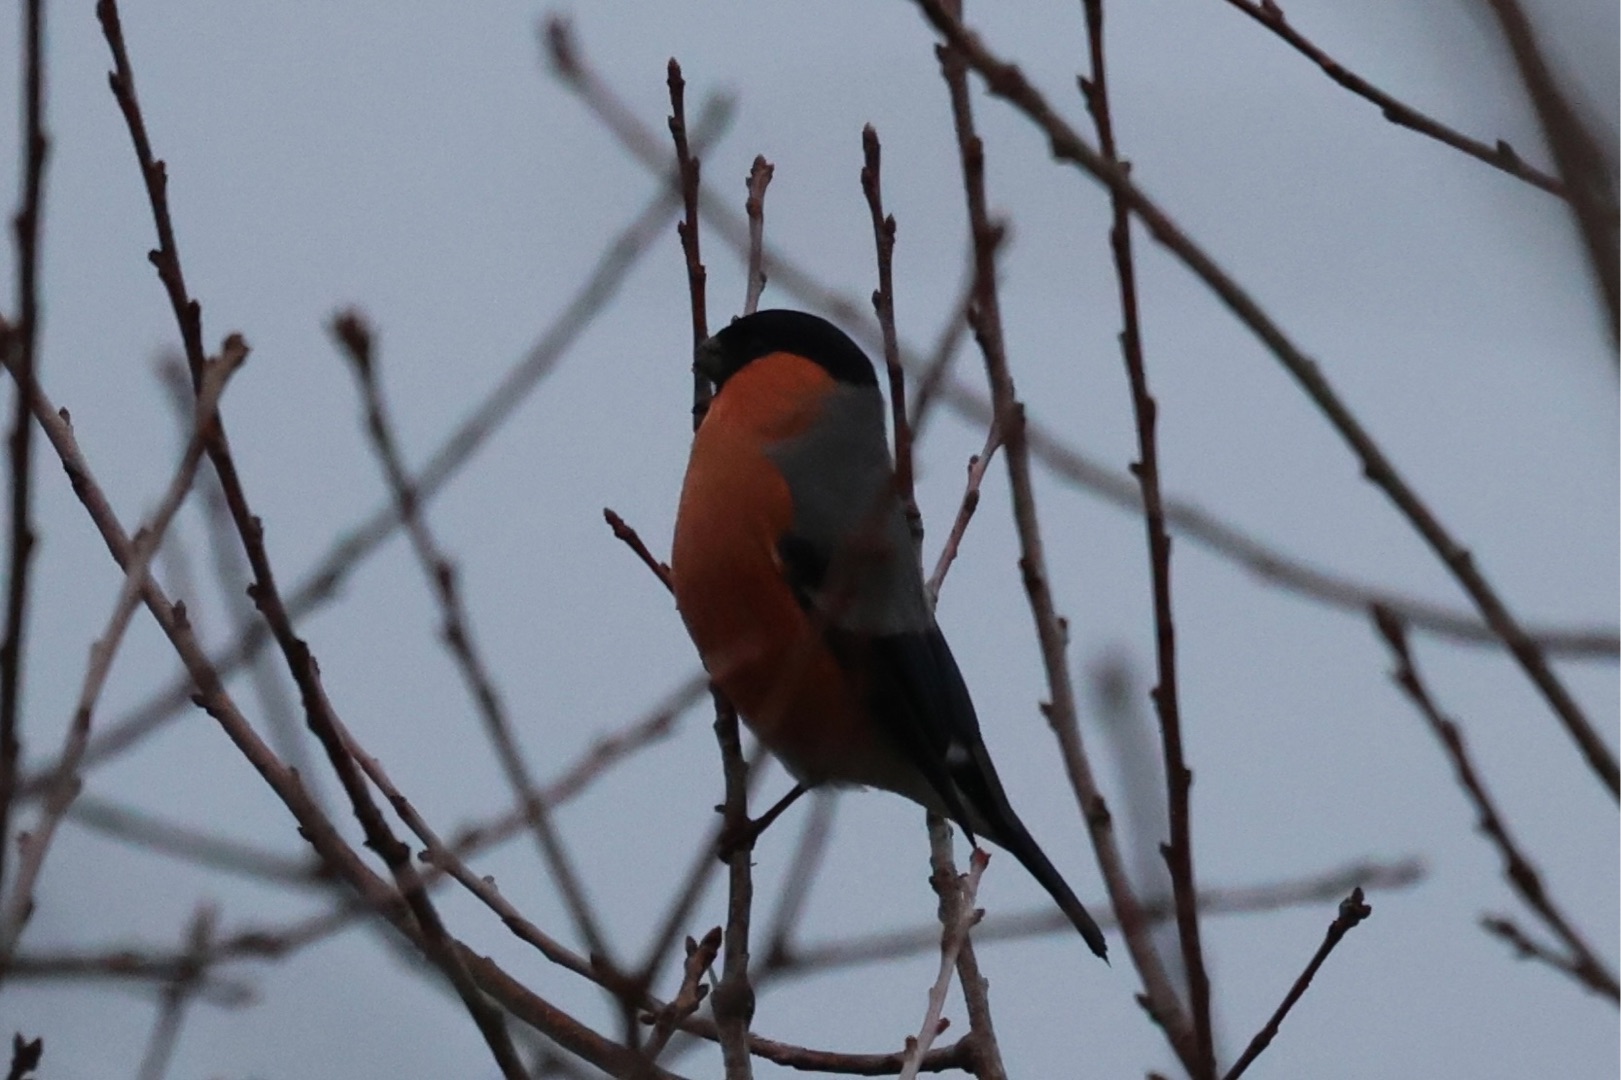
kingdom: Animalia
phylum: Chordata
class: Aves
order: Passeriformes
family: Fringillidae
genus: Pyrrhula
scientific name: Pyrrhula pyrrhula
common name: Dompap
